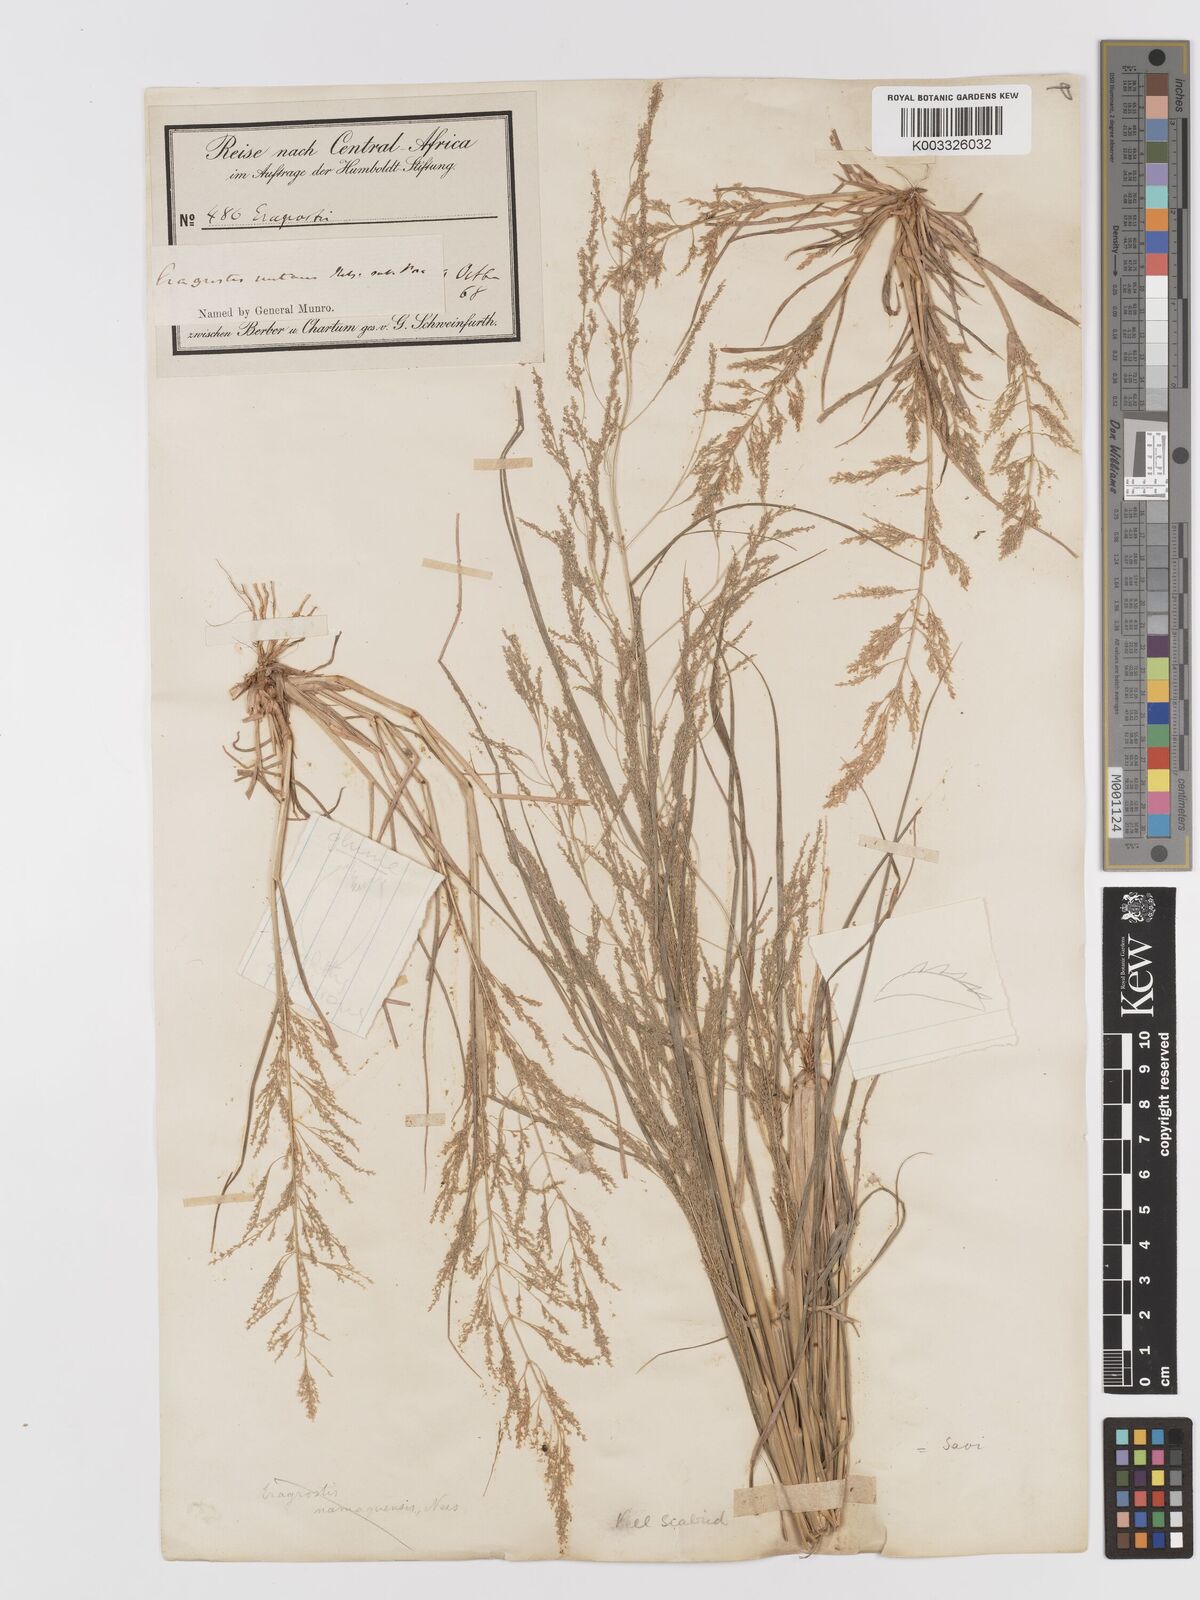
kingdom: Plantae
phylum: Tracheophyta
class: Liliopsida
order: Poales
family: Poaceae
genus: Eragrostis
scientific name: Eragrostis japonica
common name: Pond lovegrass
